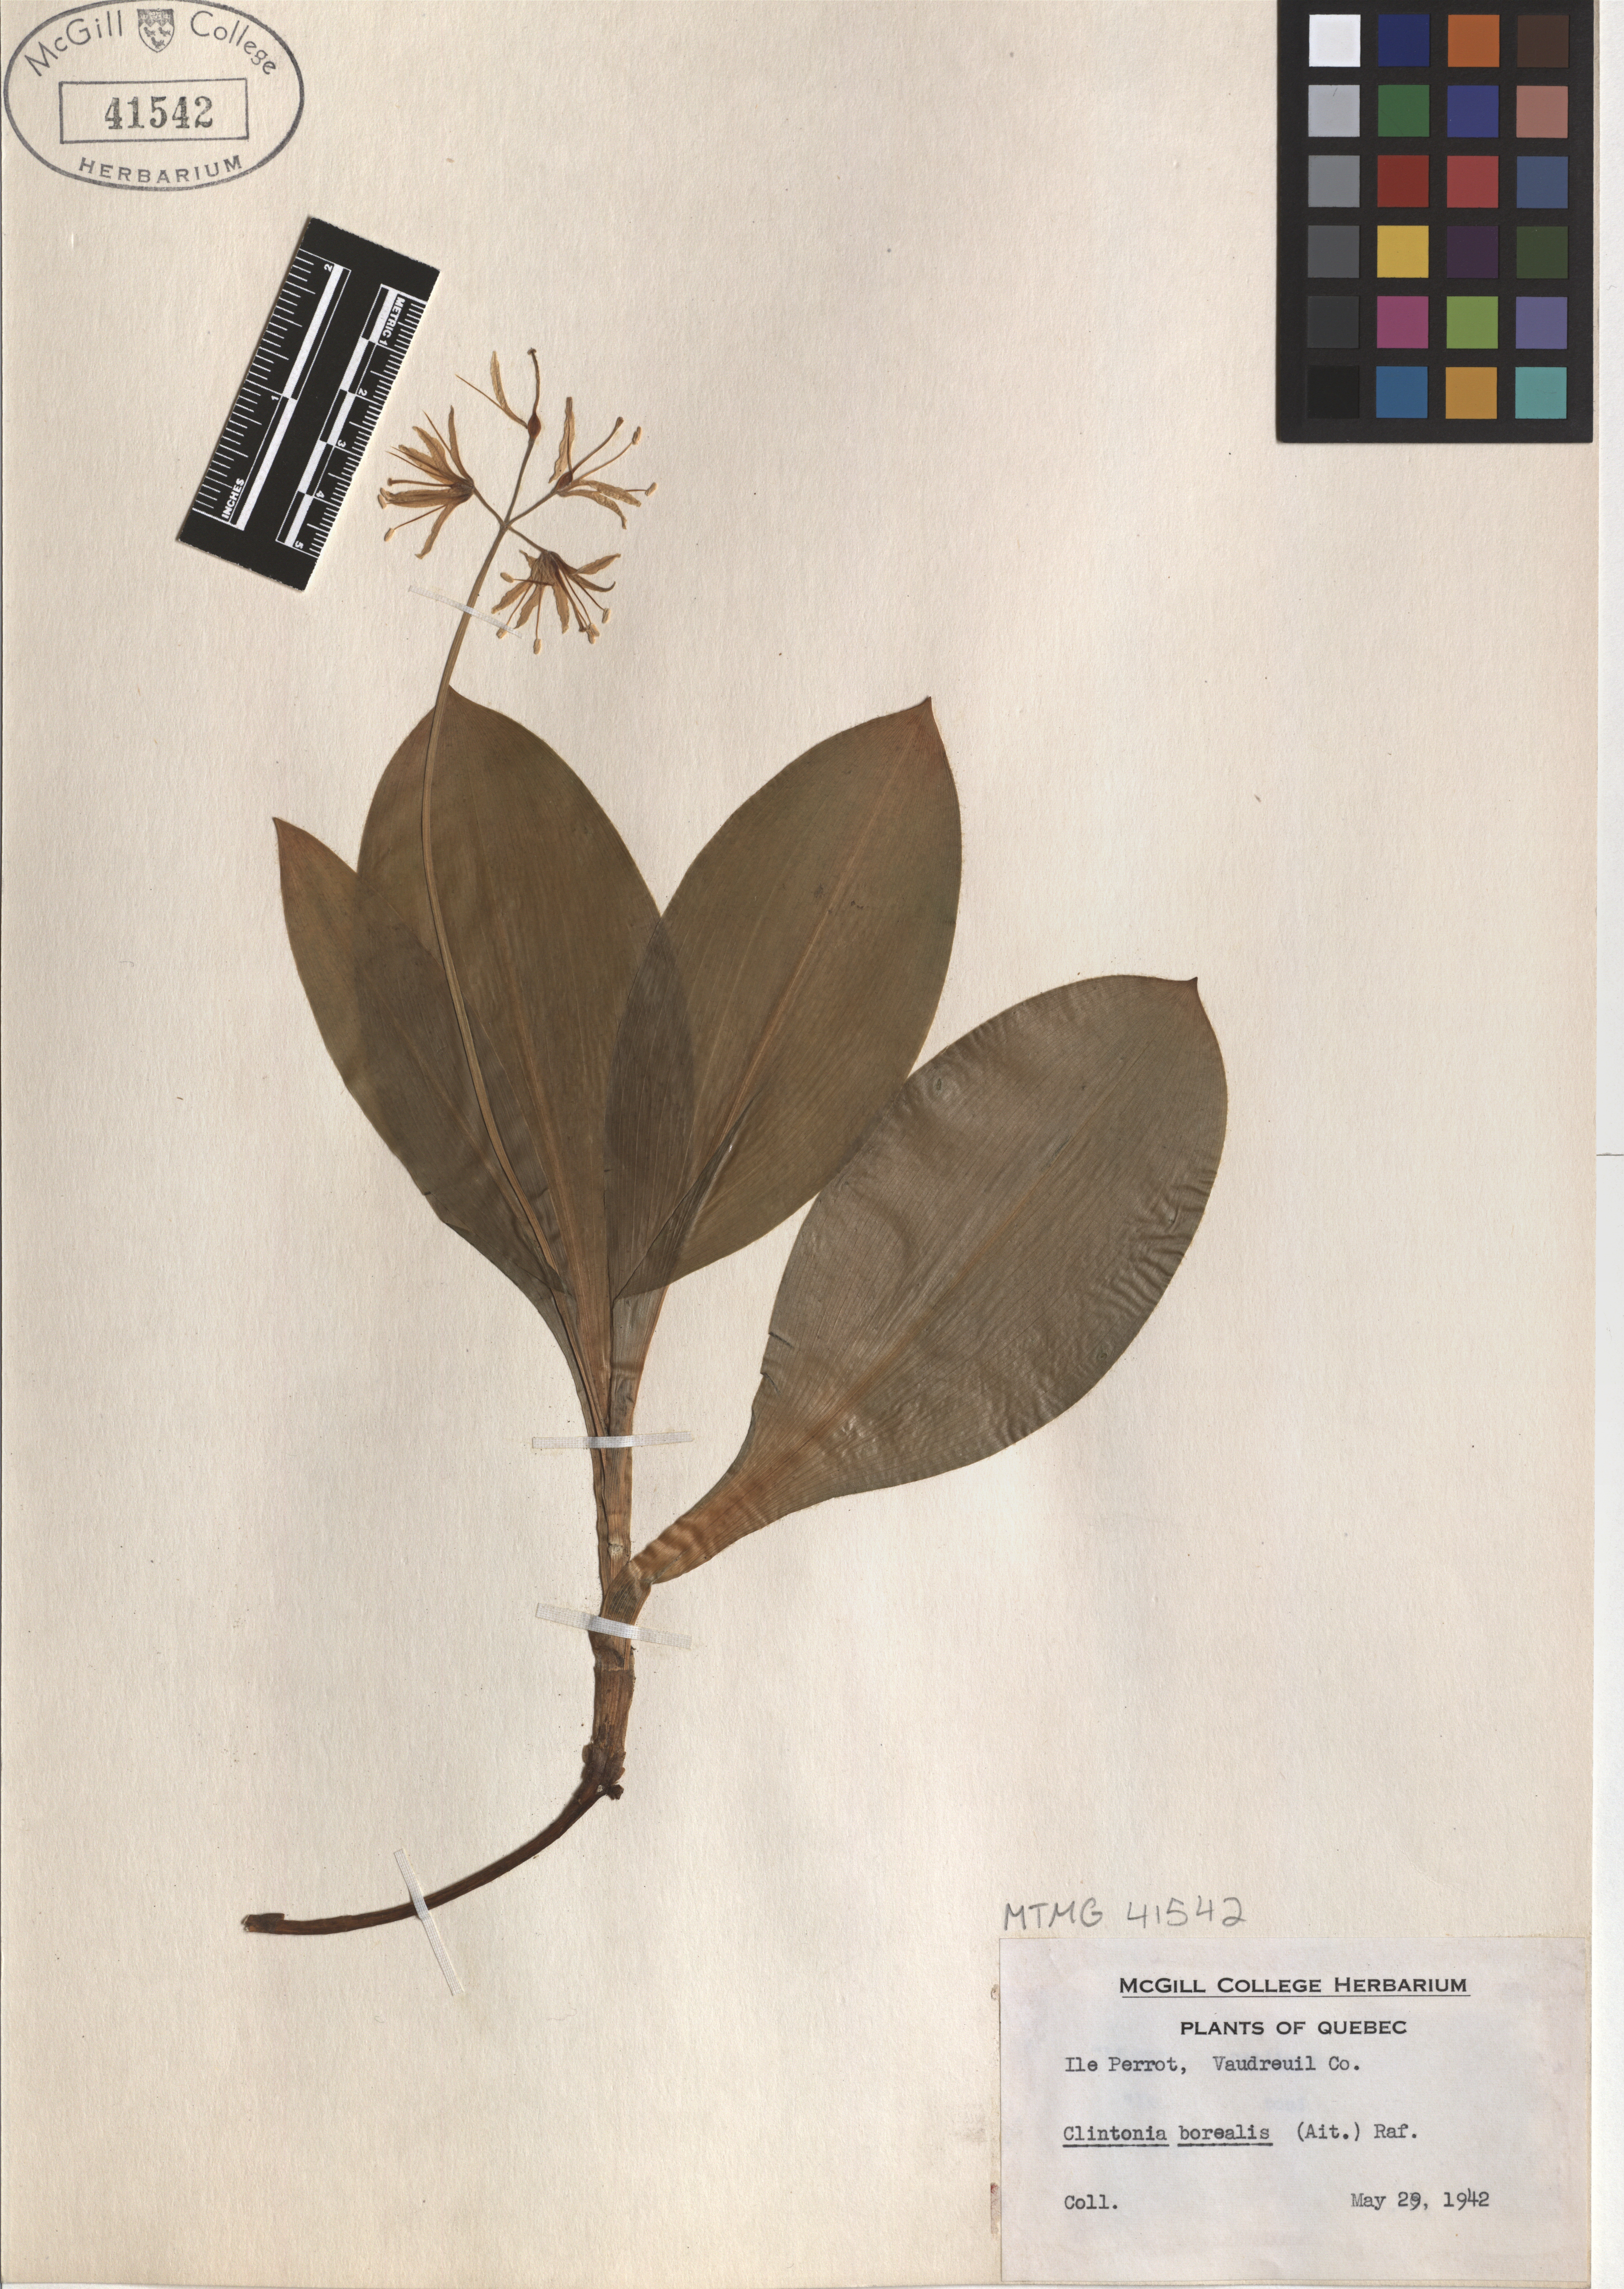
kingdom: Plantae
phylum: Tracheophyta
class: Liliopsida
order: Liliales
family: Liliaceae
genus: Clintonia
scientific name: Clintonia borealis
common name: Yellow clintonia
